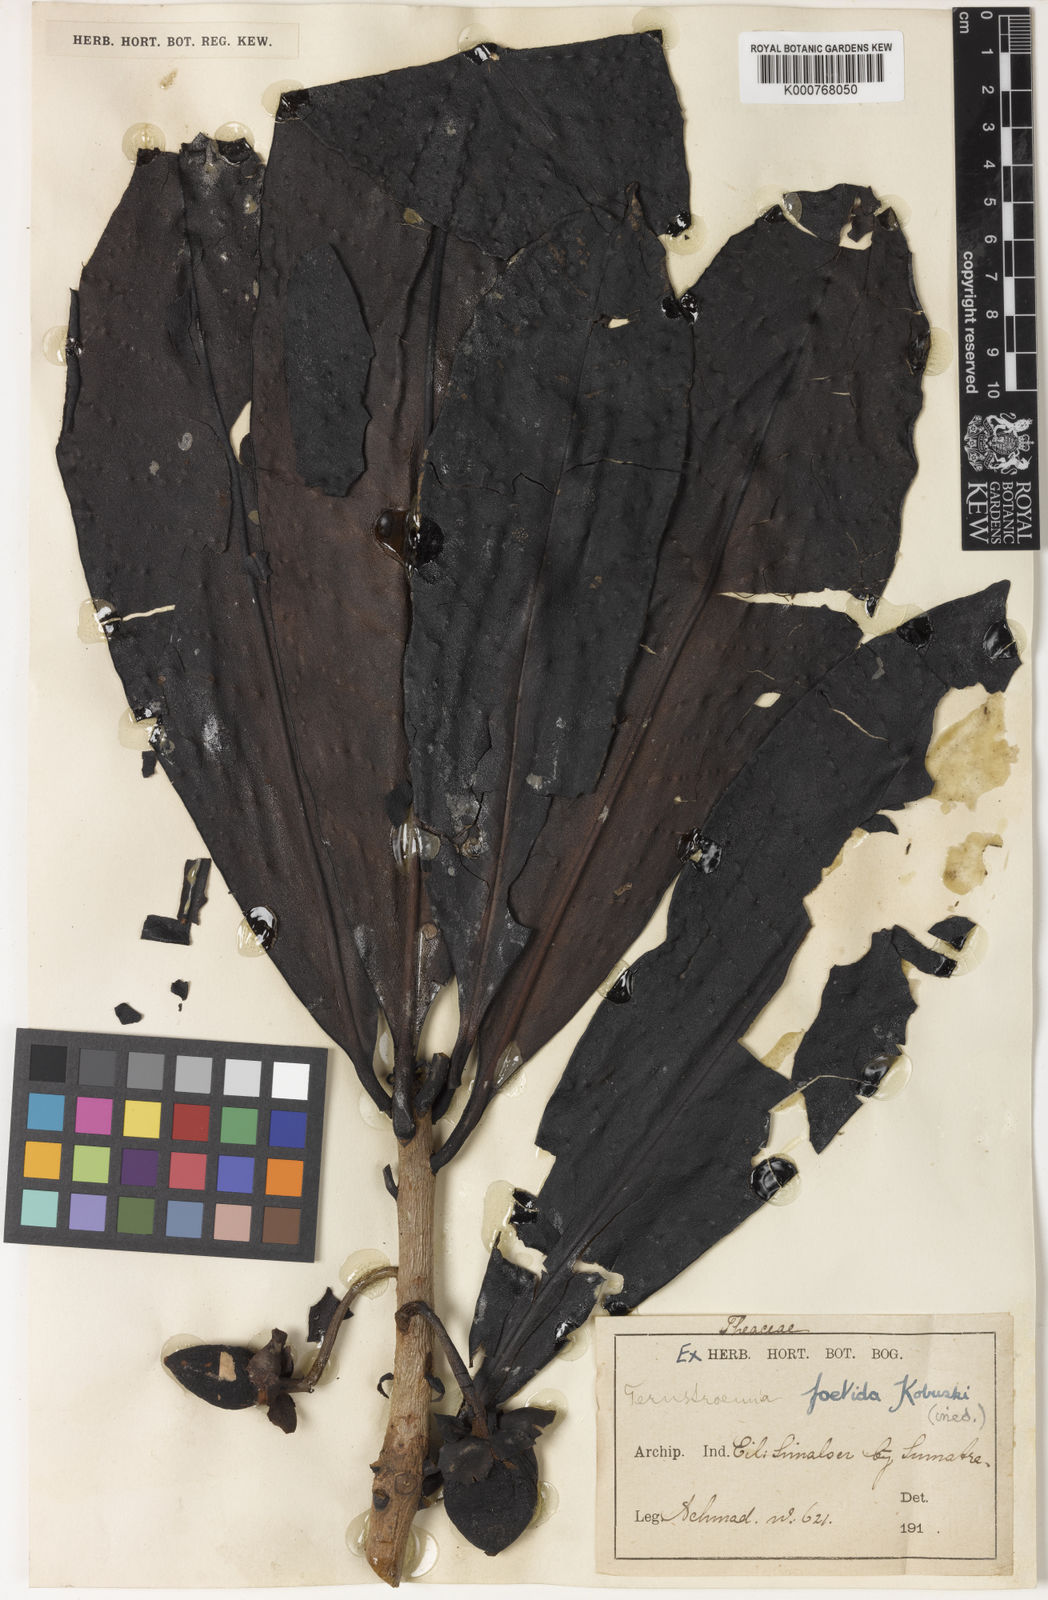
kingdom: Plantae
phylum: Tracheophyta
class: Magnoliopsida
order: Ericales
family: Pentaphylacaceae
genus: Ternstroemia
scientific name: Ternstroemia foetida
